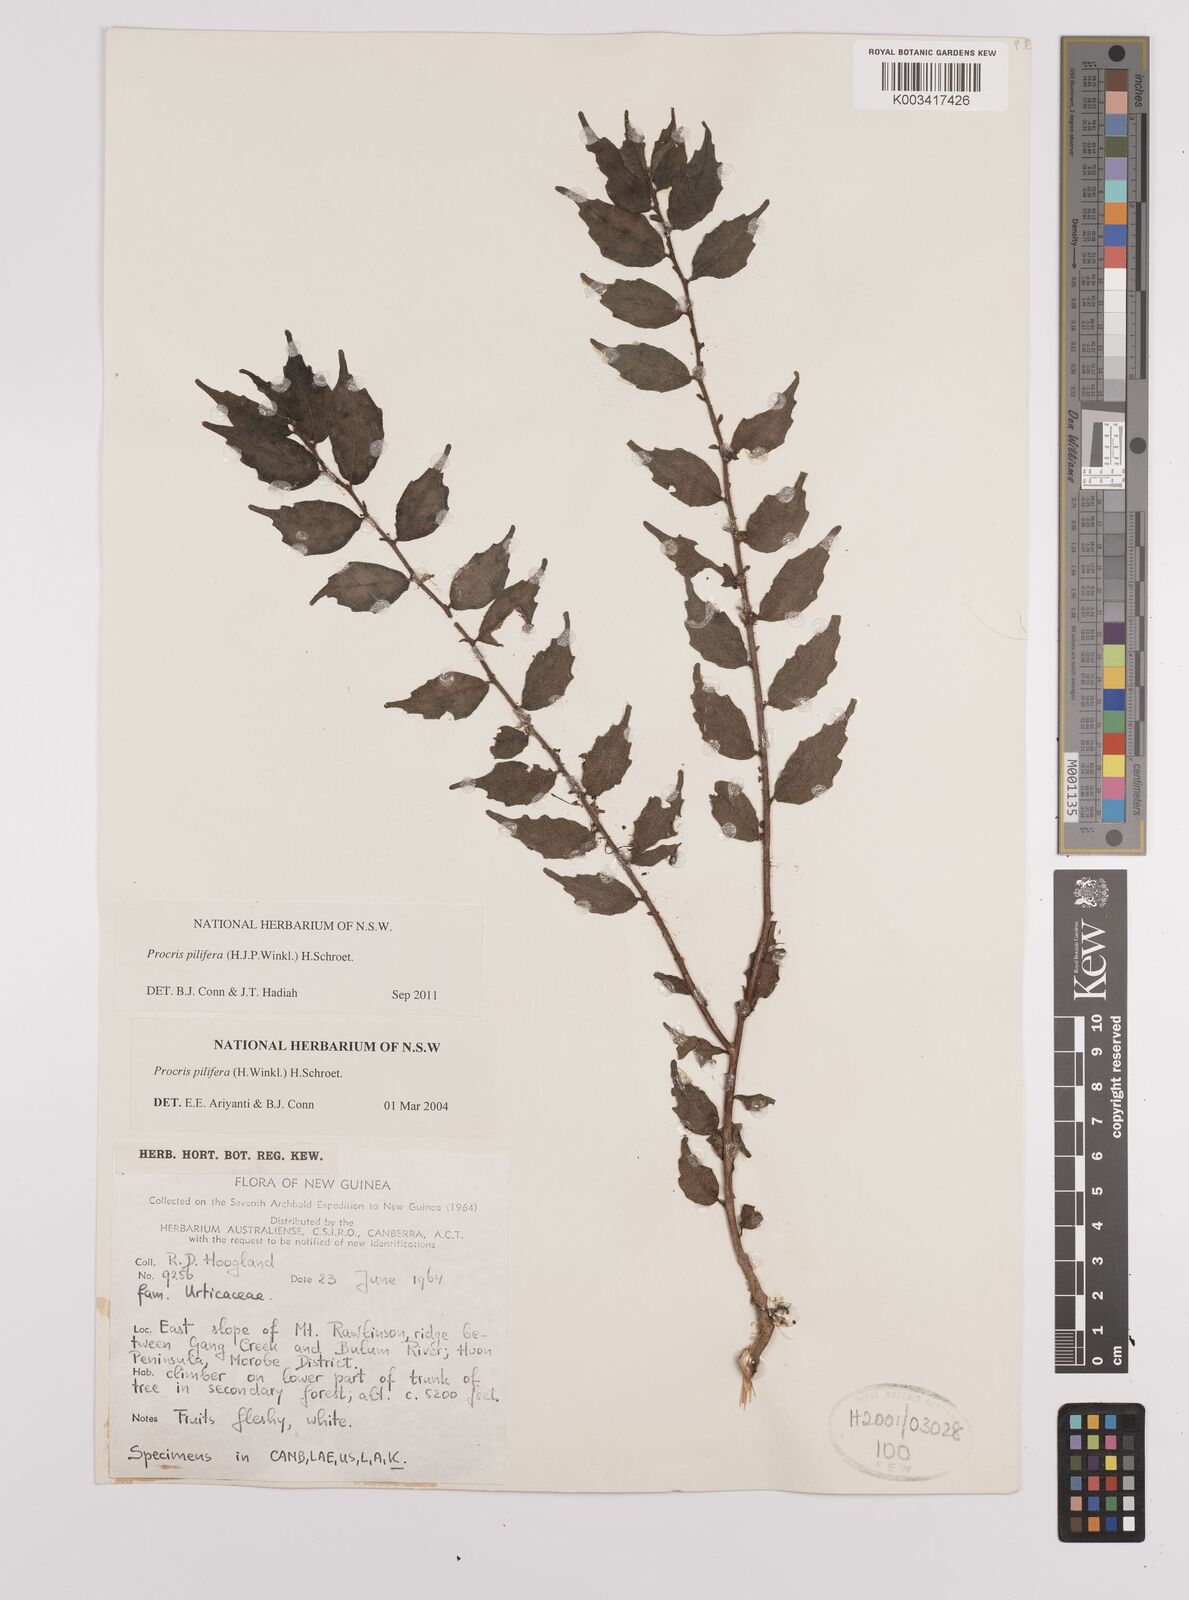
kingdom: Plantae
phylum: Tracheophyta
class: Magnoliopsida
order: Rosales
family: Urticaceae
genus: Procris
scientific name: Procris pilifera
